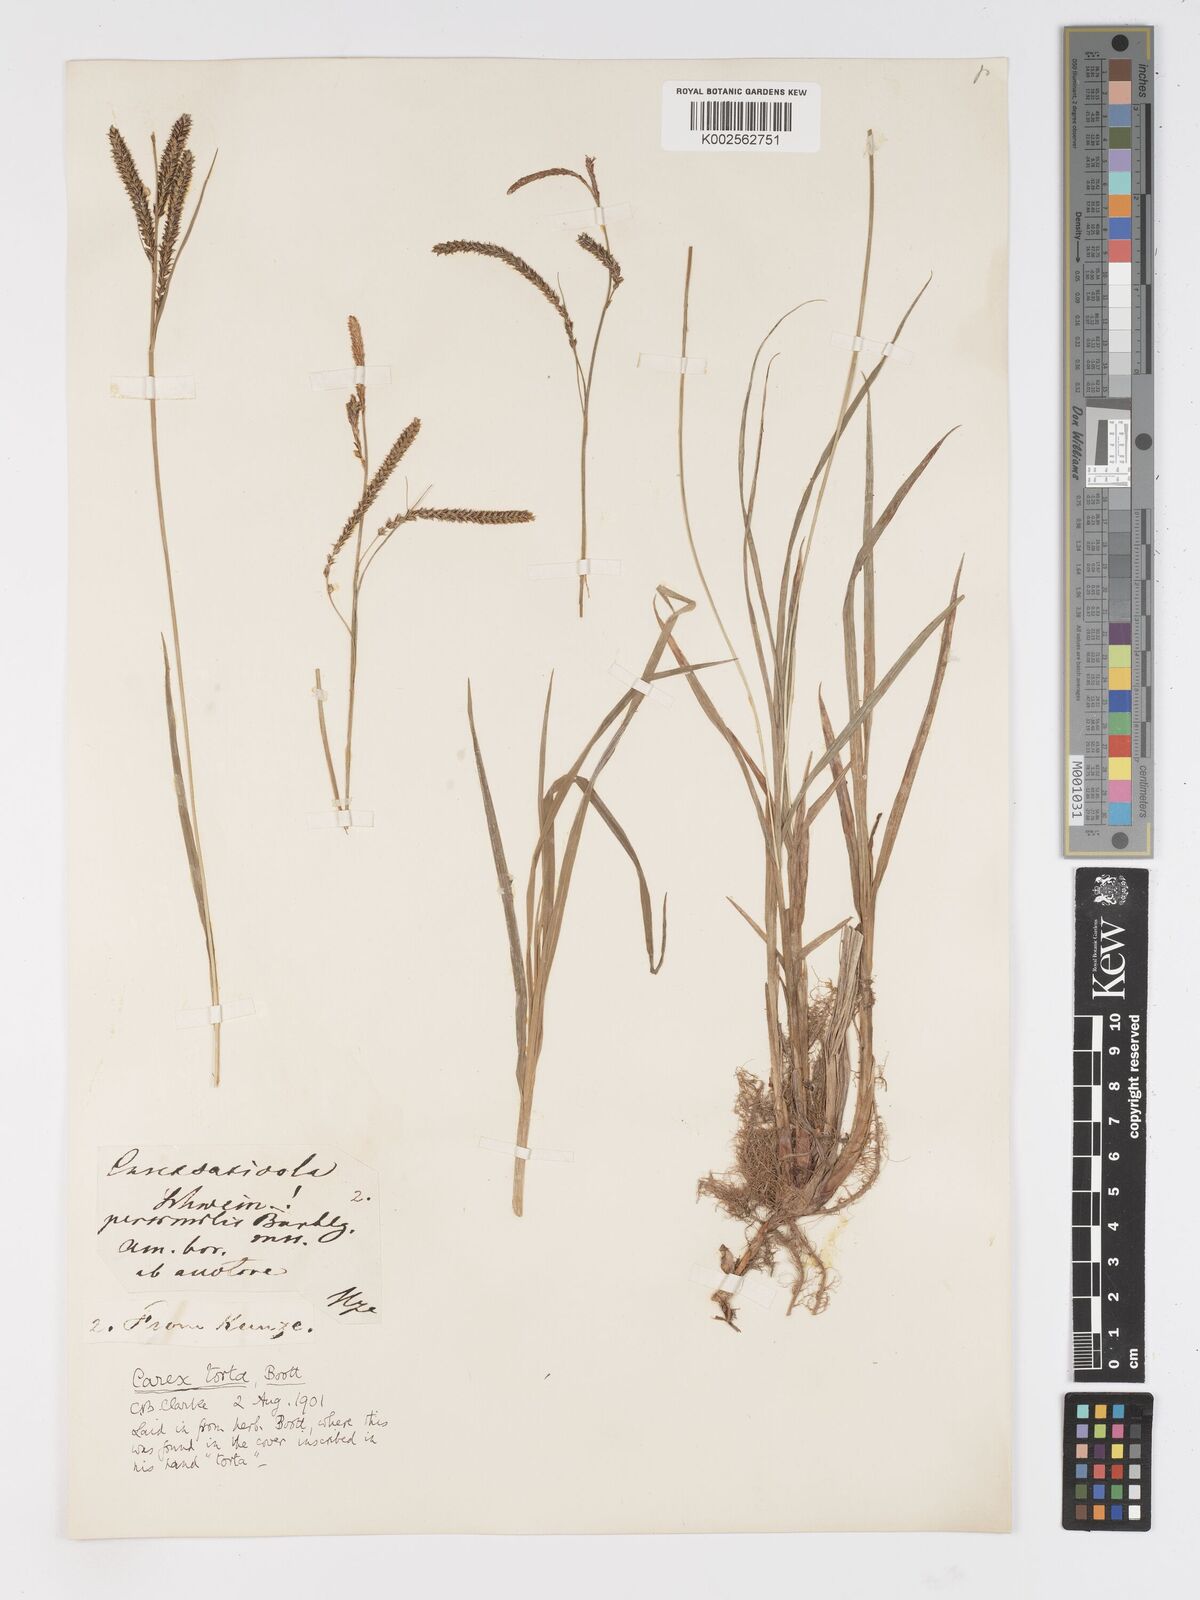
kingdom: Plantae
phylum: Tracheophyta
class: Liliopsida
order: Poales
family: Cyperaceae
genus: Carex
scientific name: Carex torta
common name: Twisted sedge
